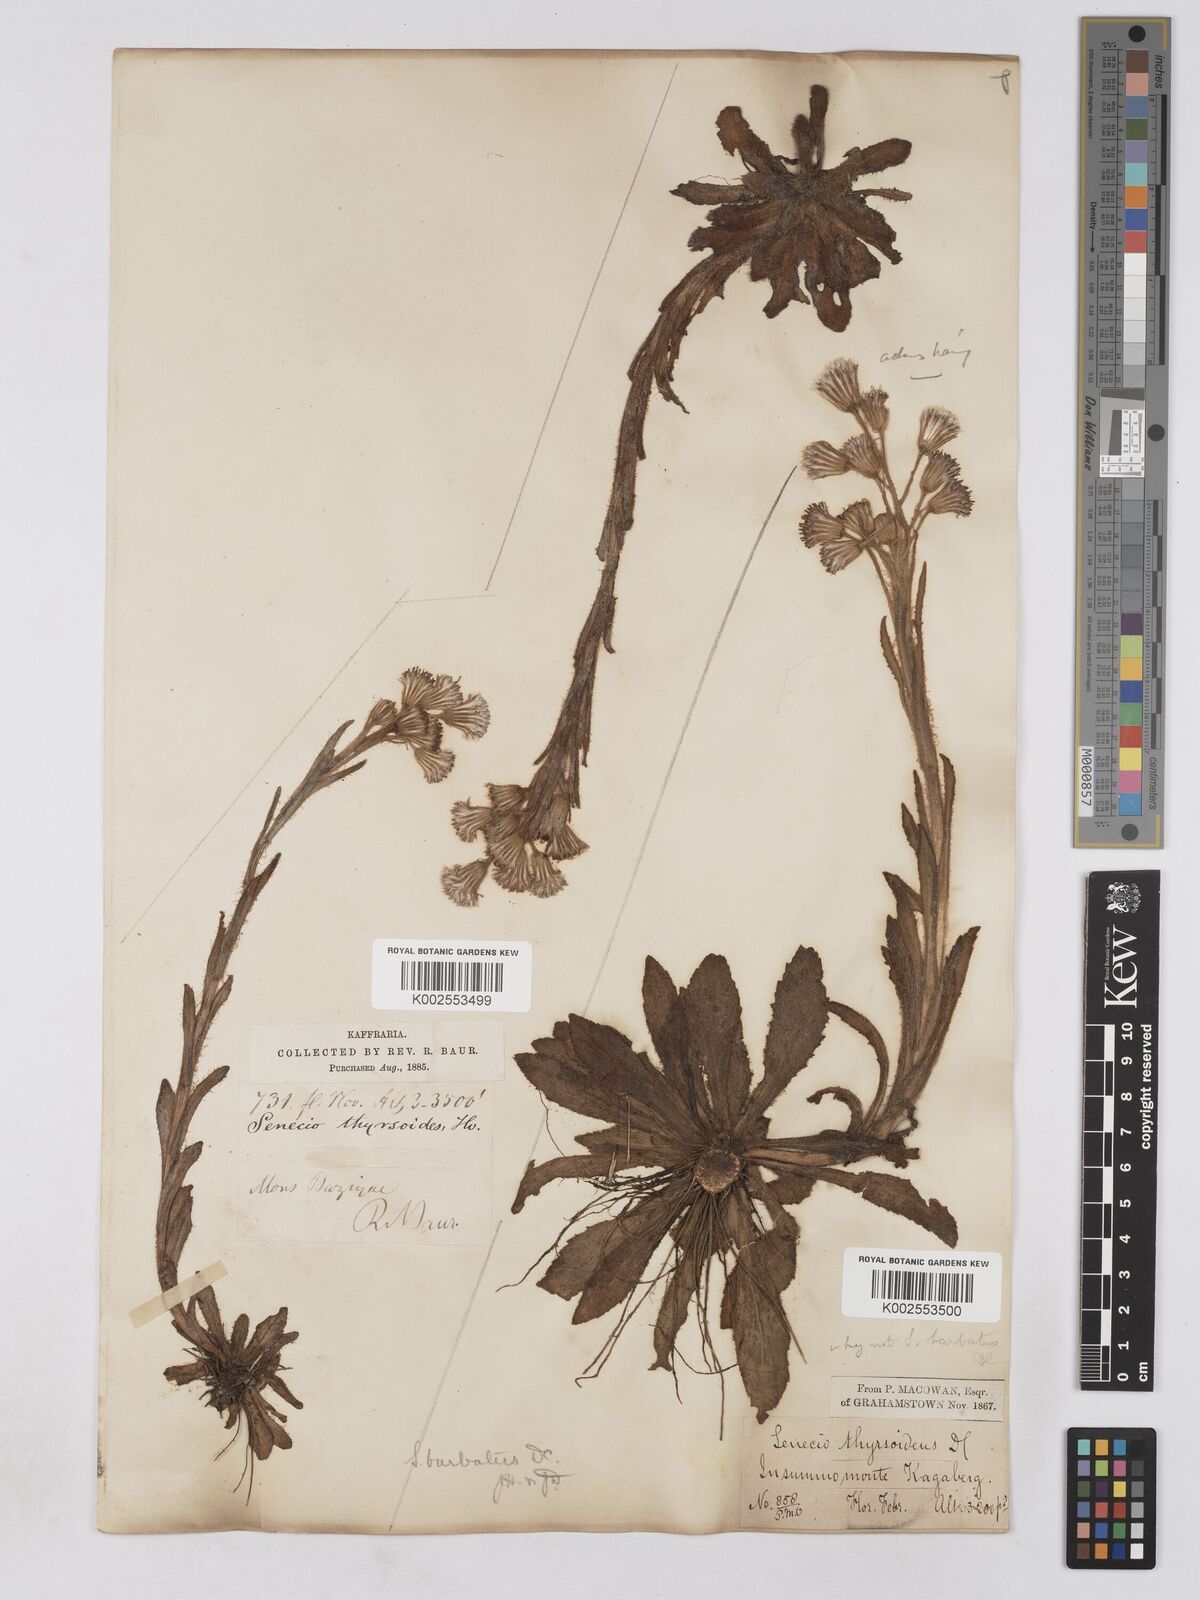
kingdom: Plantae
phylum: Tracheophyta
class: Magnoliopsida
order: Asterales
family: Asteraceae
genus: Senecio
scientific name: Senecio barbatus
